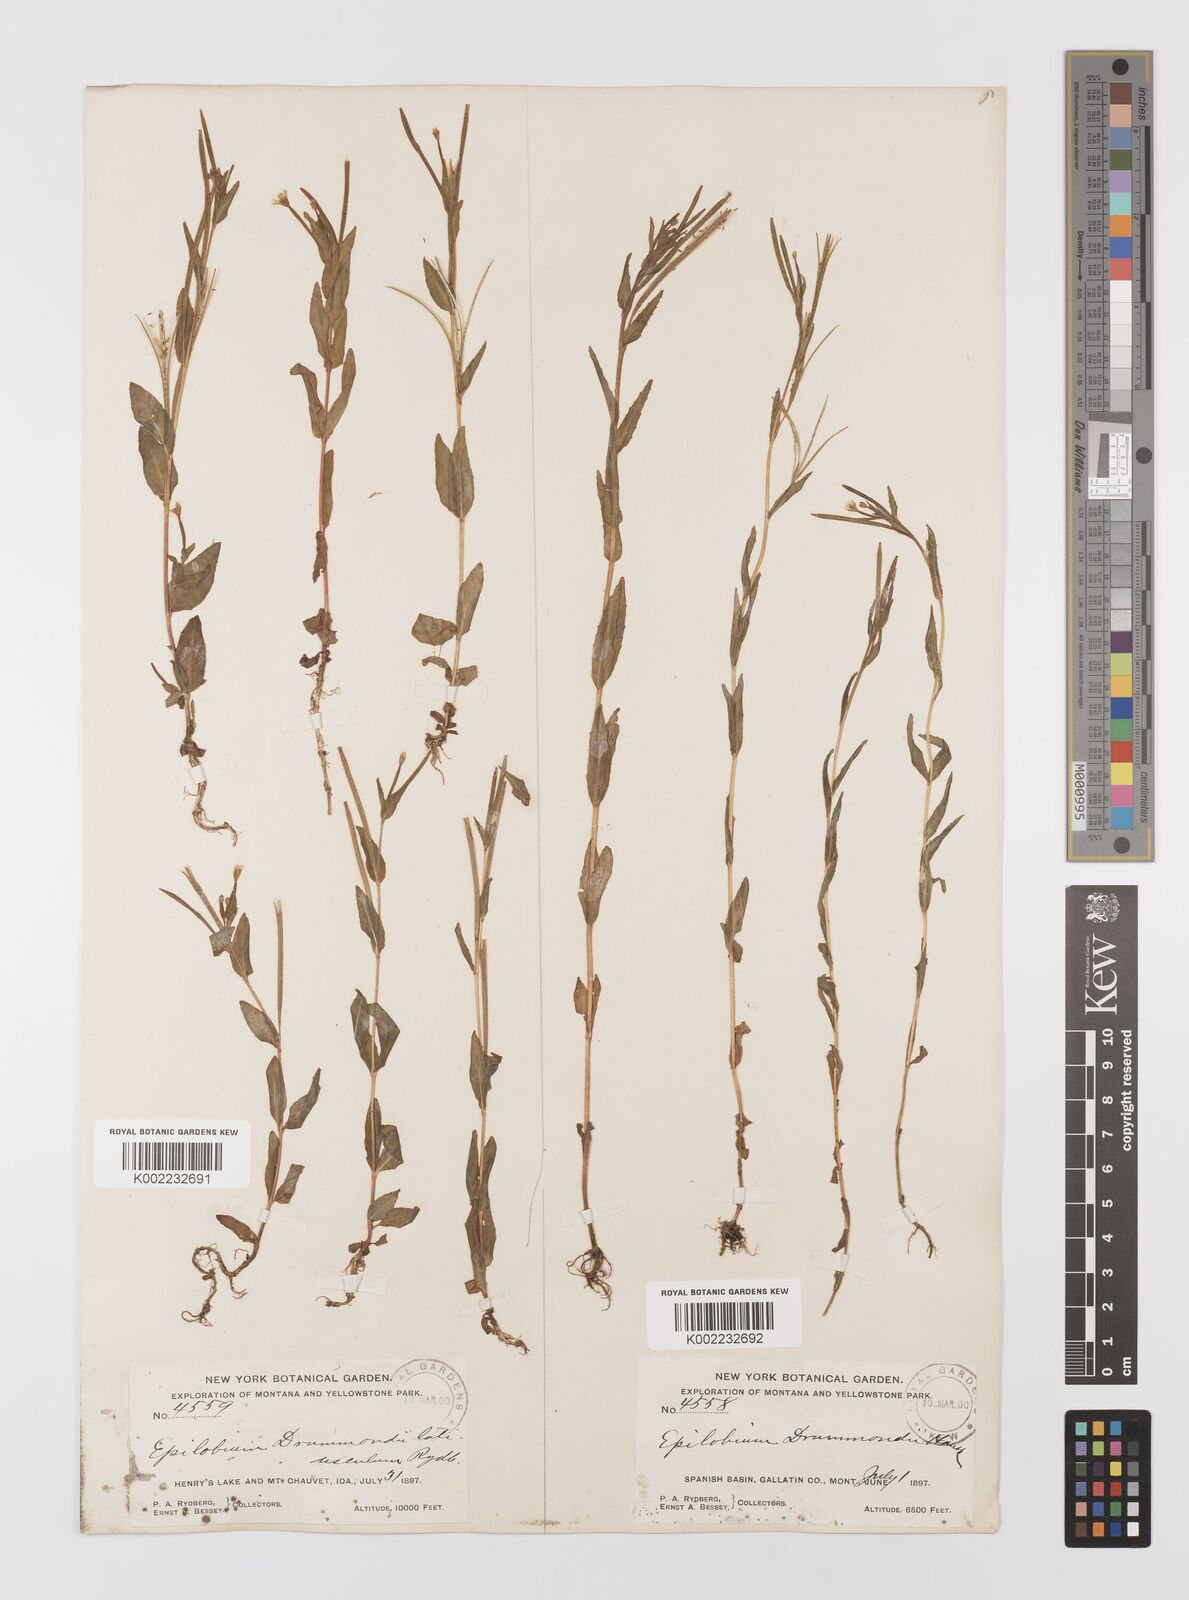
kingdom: Plantae
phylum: Tracheophyta
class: Magnoliopsida
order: Myrtales
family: Onagraceae
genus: Epilobium
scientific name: Epilobium
